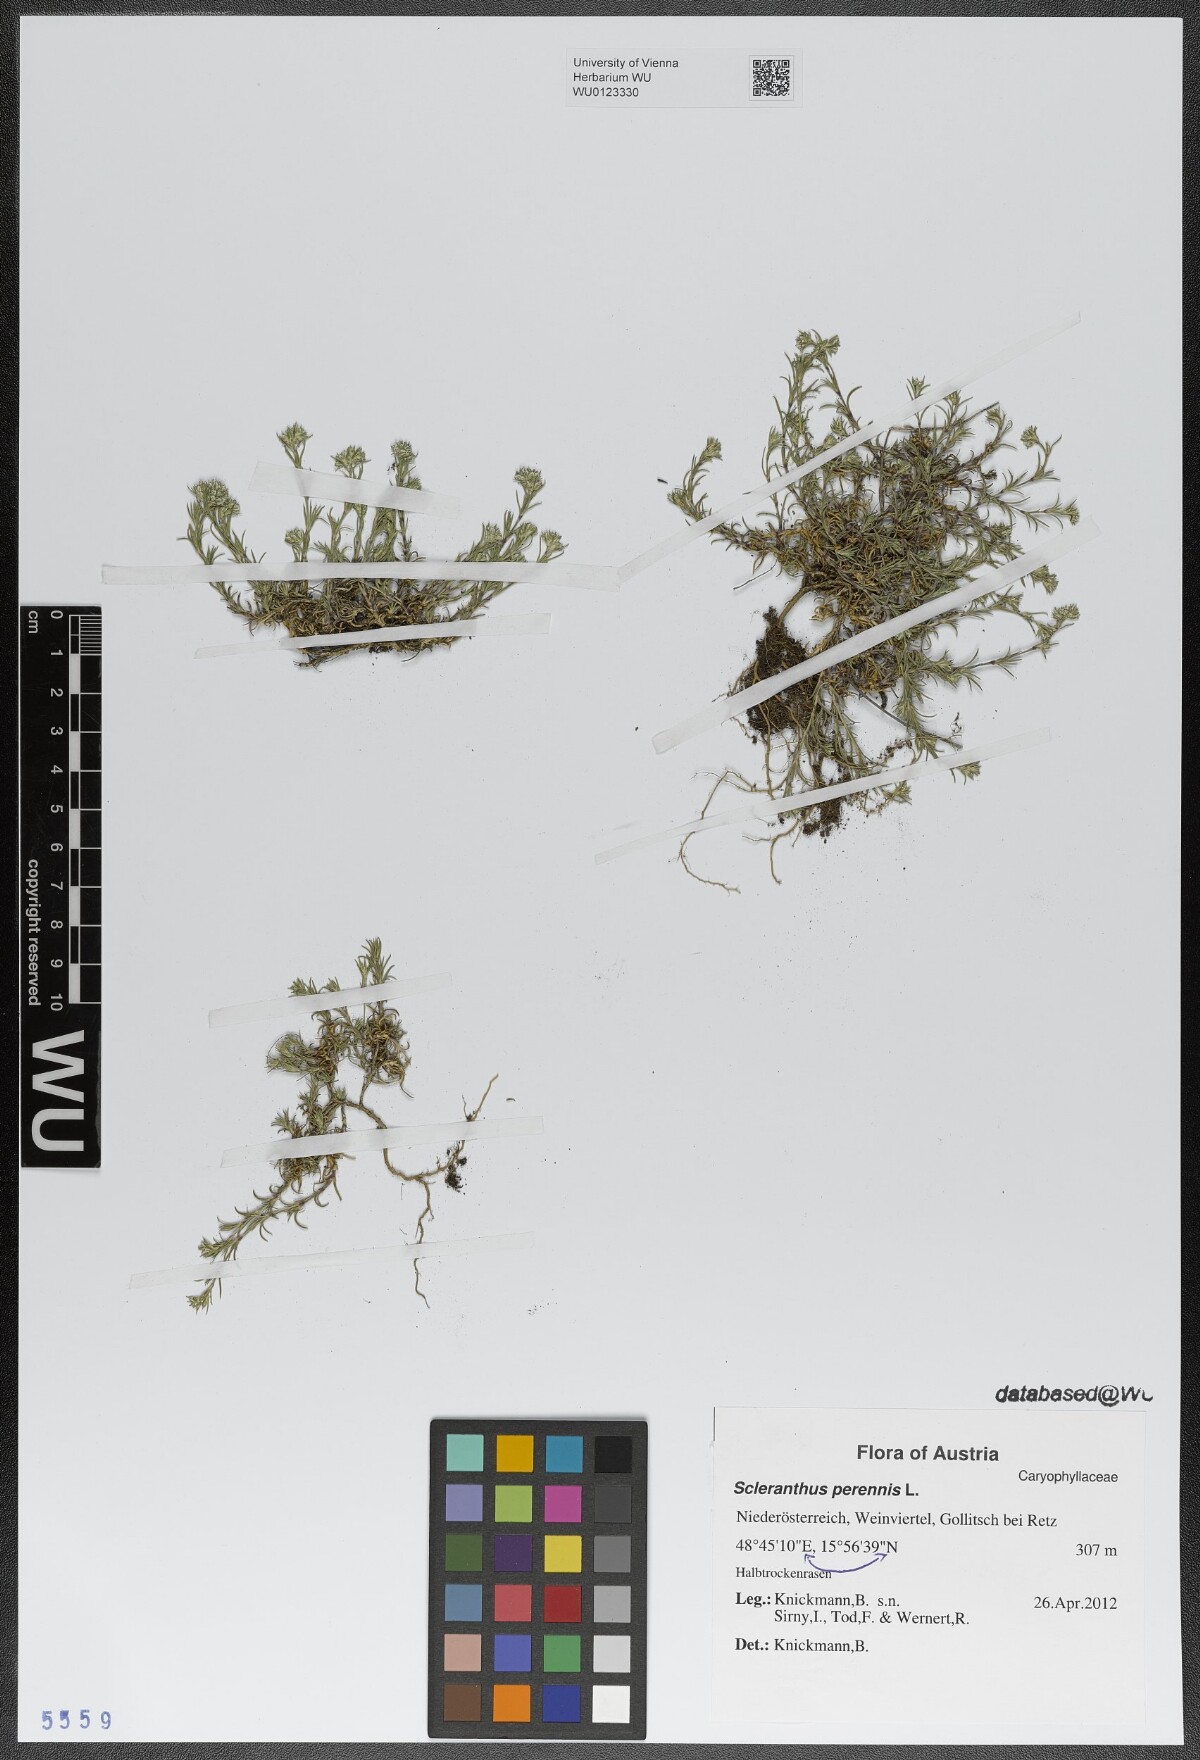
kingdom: Plantae
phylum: Tracheophyta
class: Magnoliopsida
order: Caryophyllales
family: Caryophyllaceae
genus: Scleranthus
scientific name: Scleranthus perennis
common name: Perennial knawel
